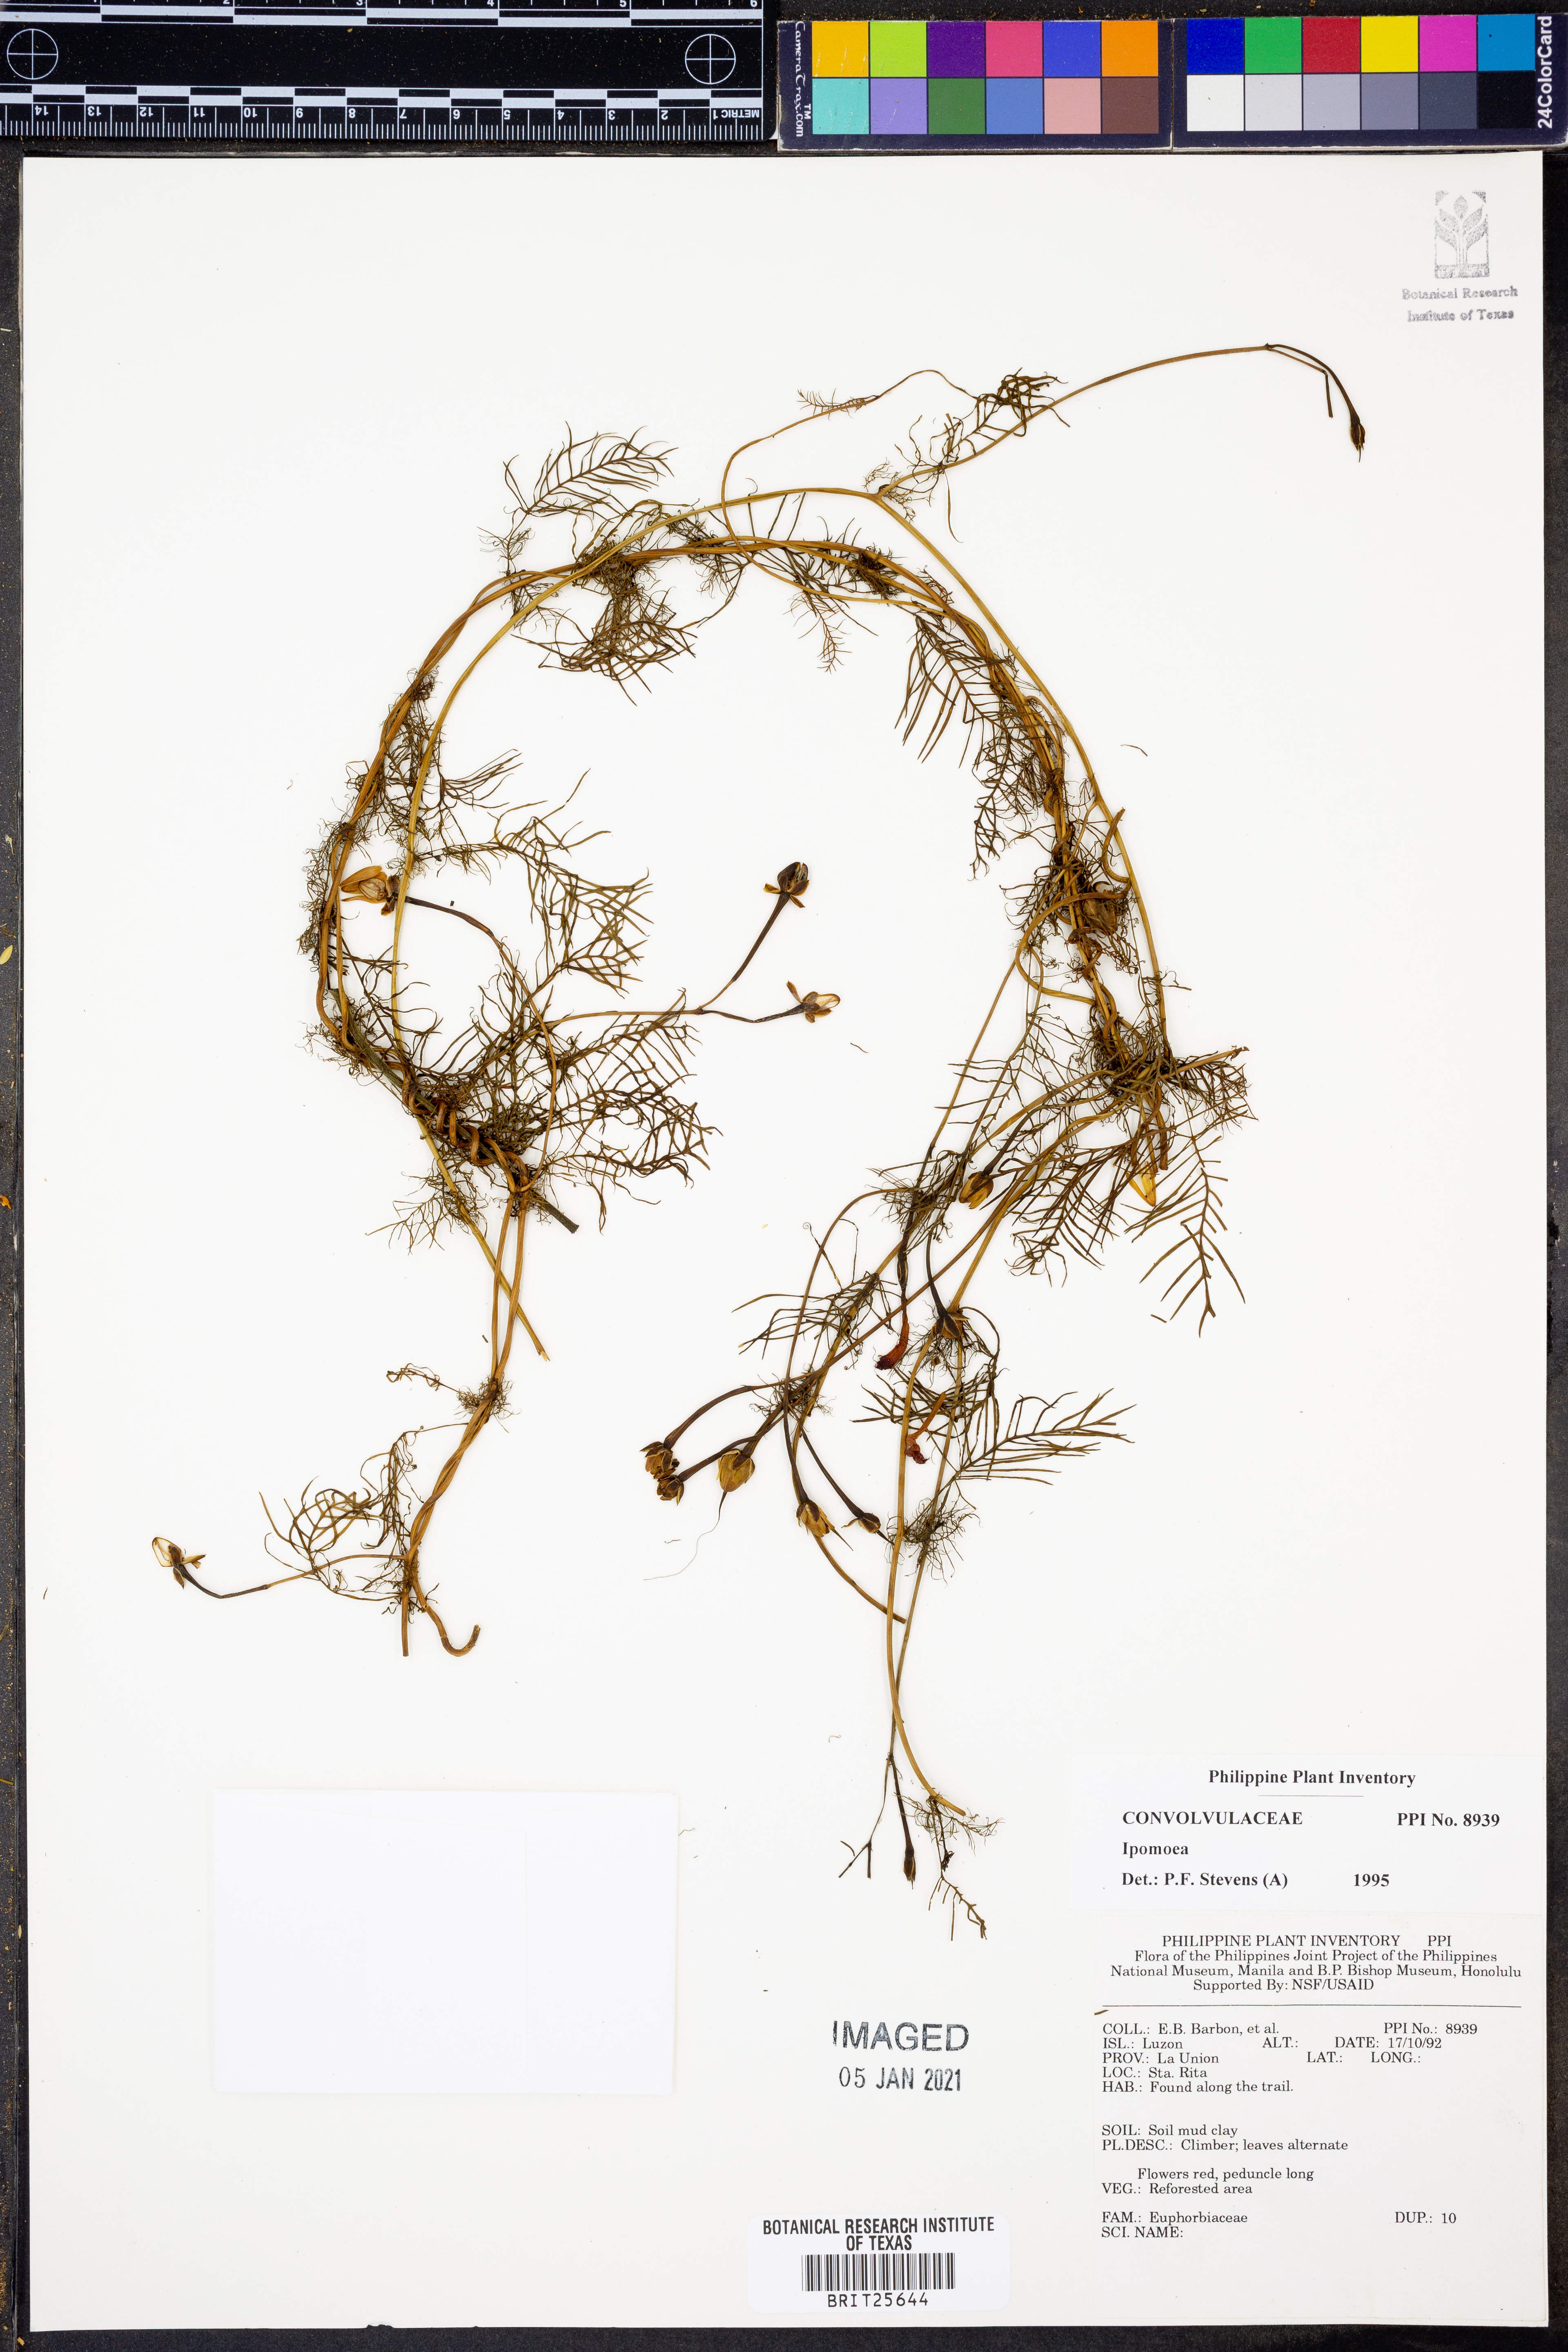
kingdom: Plantae
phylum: Tracheophyta
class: Magnoliopsida
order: Solanales
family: Convolvulaceae
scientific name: Convolvulaceae
